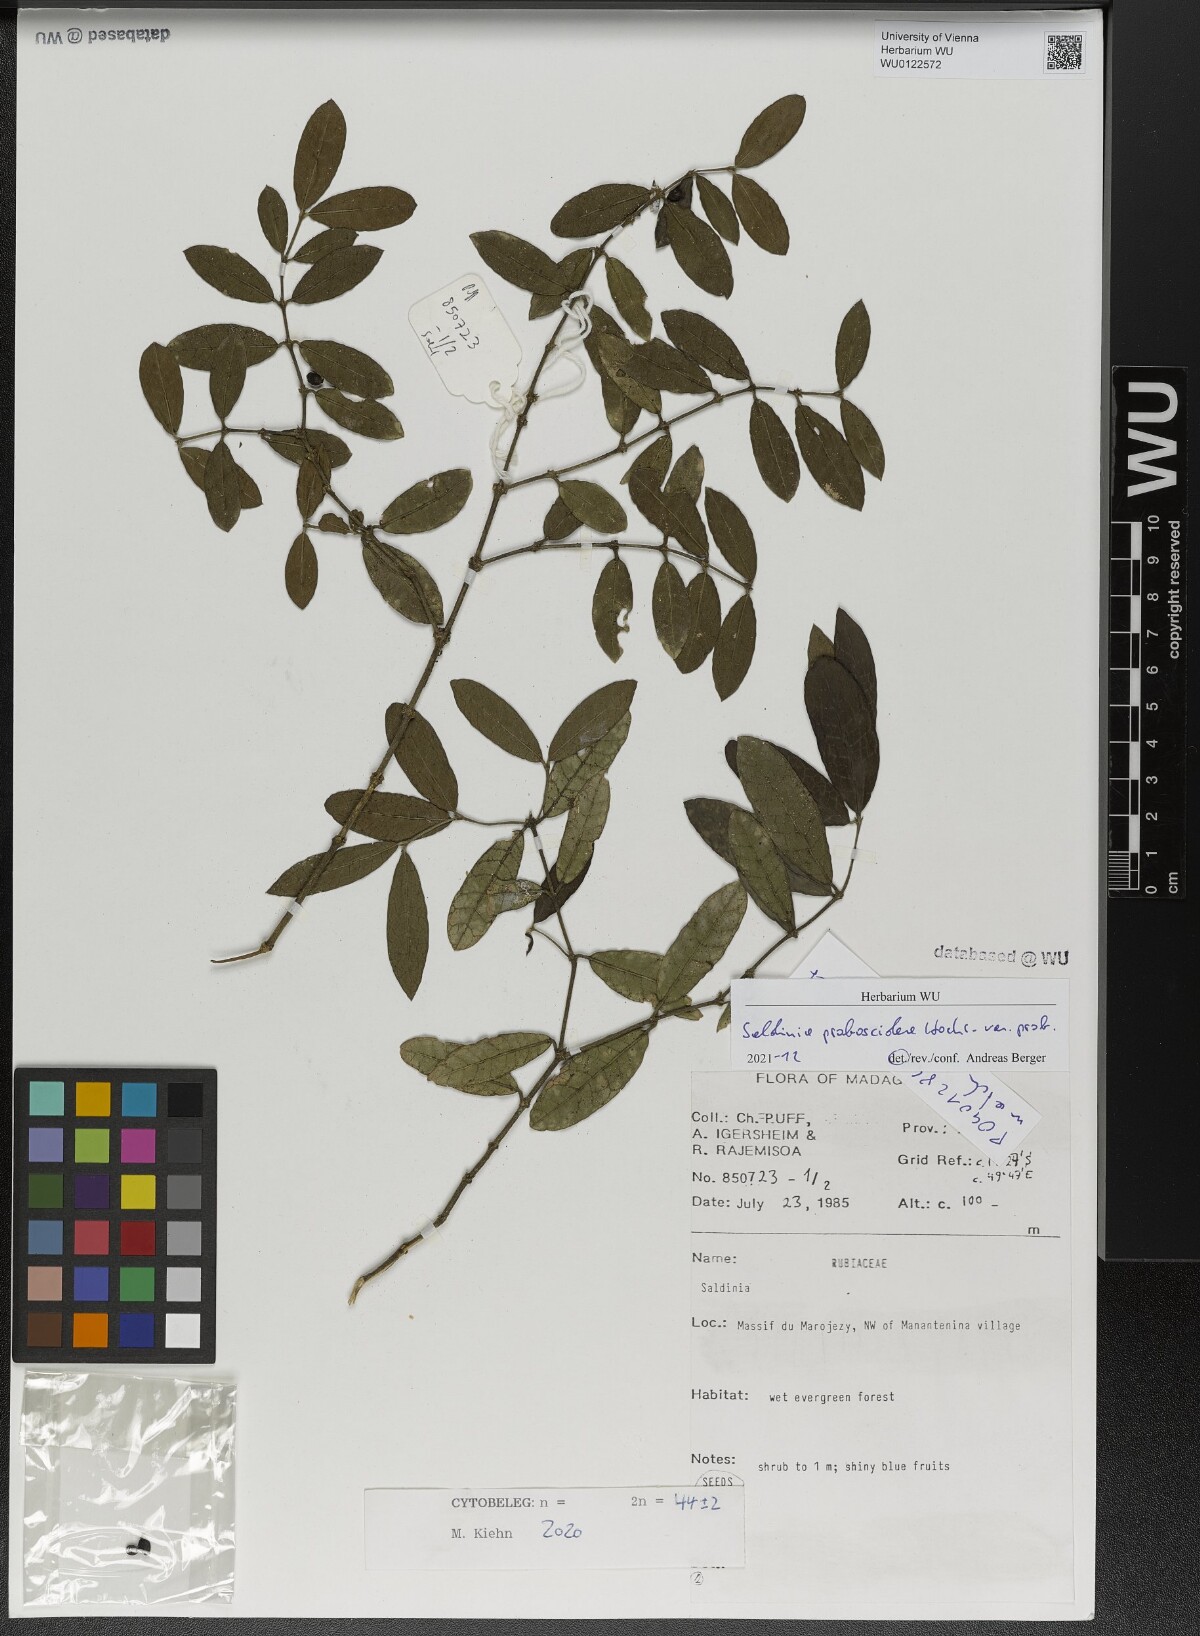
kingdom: Plantae
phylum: Tracheophyta
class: Magnoliopsida
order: Gentianales
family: Rubiaceae
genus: Saldinia
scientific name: Saldinia proboscidea
